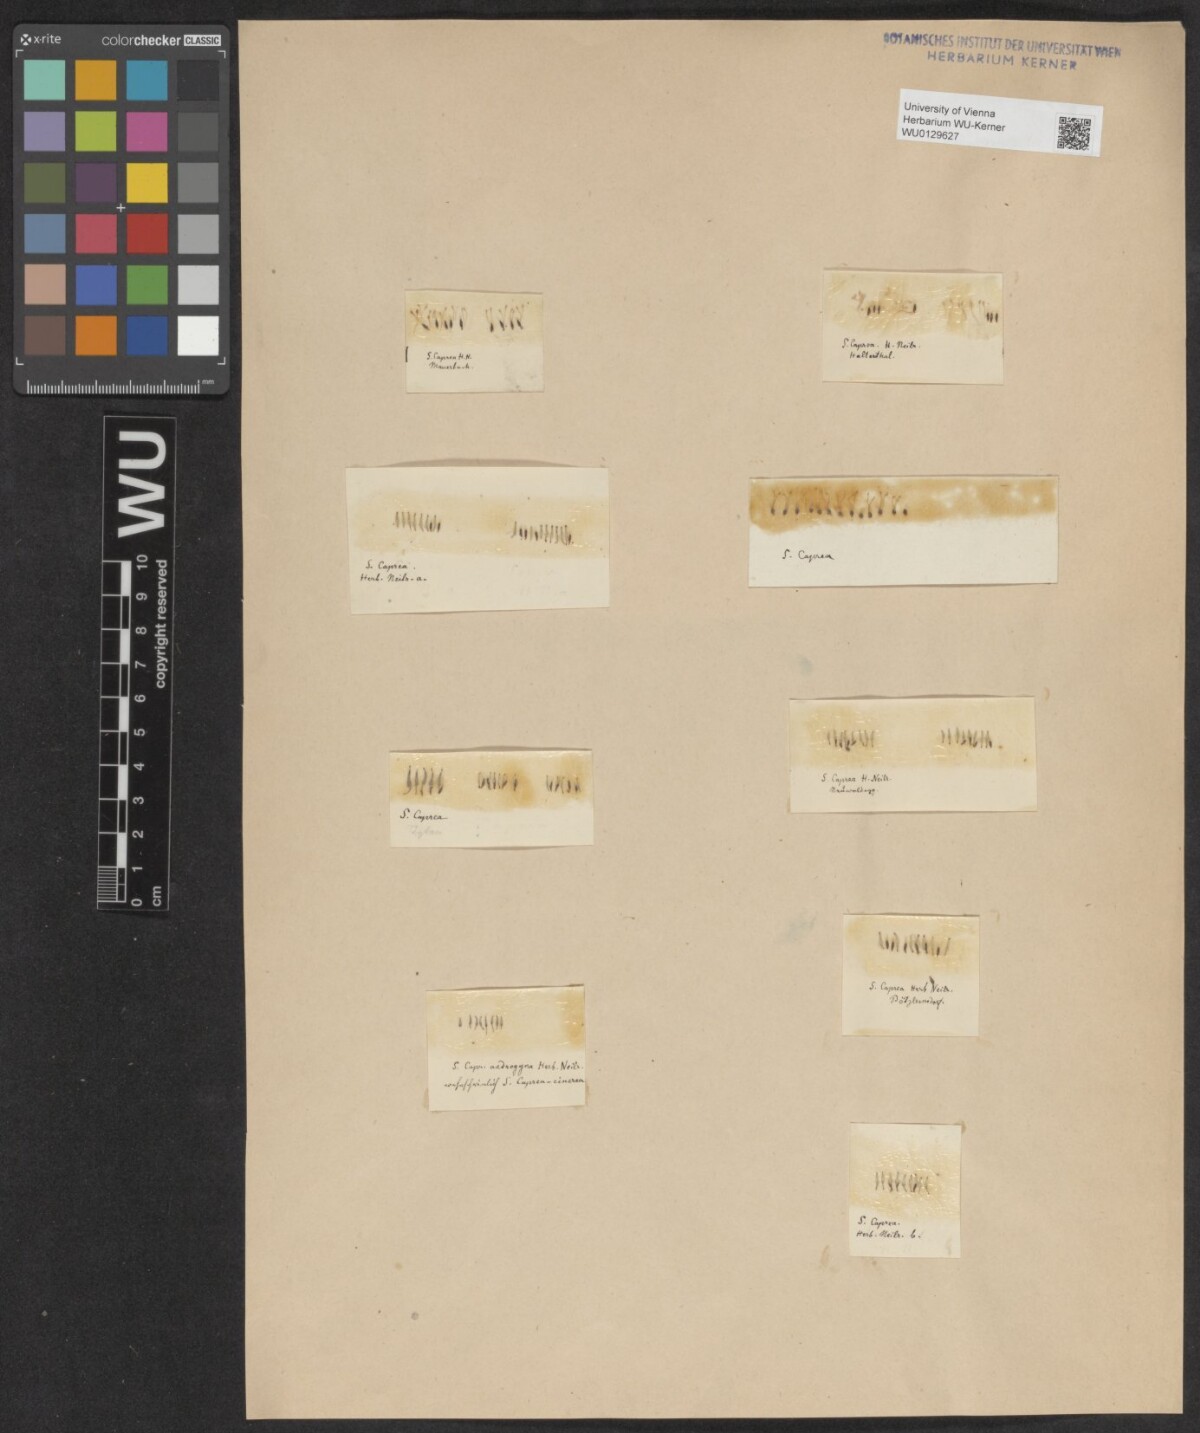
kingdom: Plantae
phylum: Tracheophyta
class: Magnoliopsida
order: Malpighiales
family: Salicaceae
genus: Salix
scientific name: Salix caprea
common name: Goat willow
